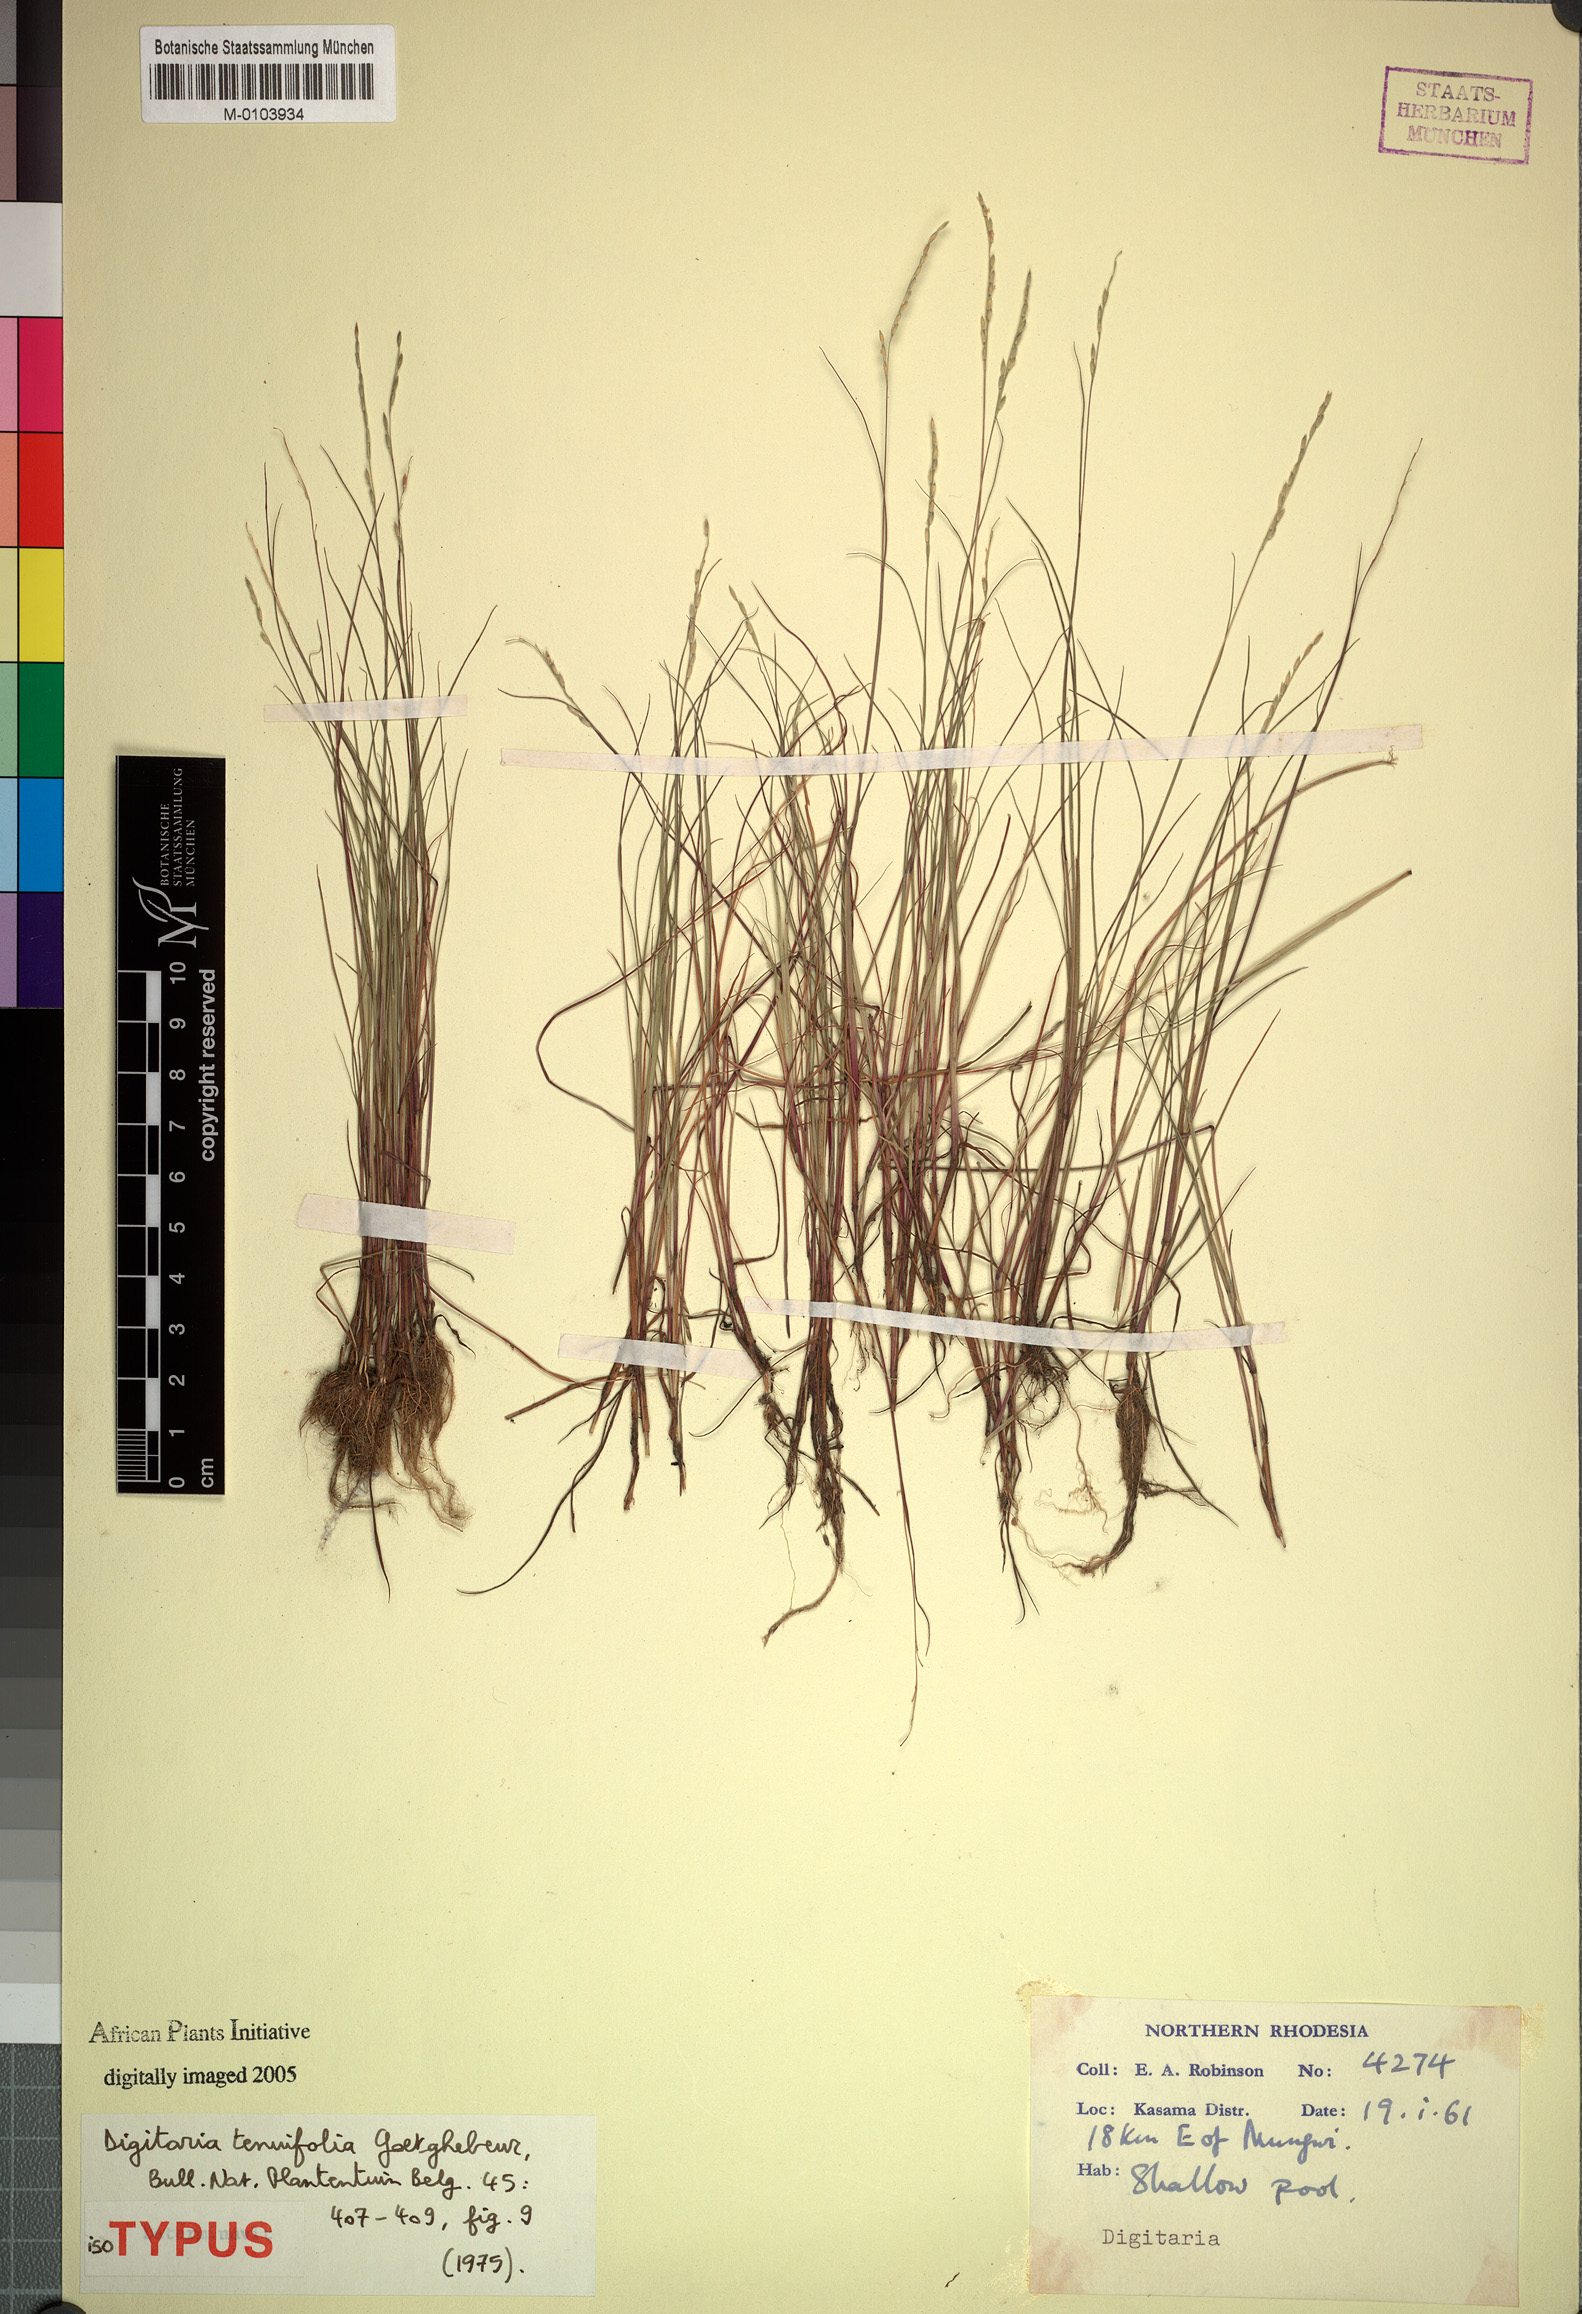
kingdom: Plantae
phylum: Tracheophyta
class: Liliopsida
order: Poales
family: Poaceae
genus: Digitaria
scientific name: Digitaria tenuifolia
